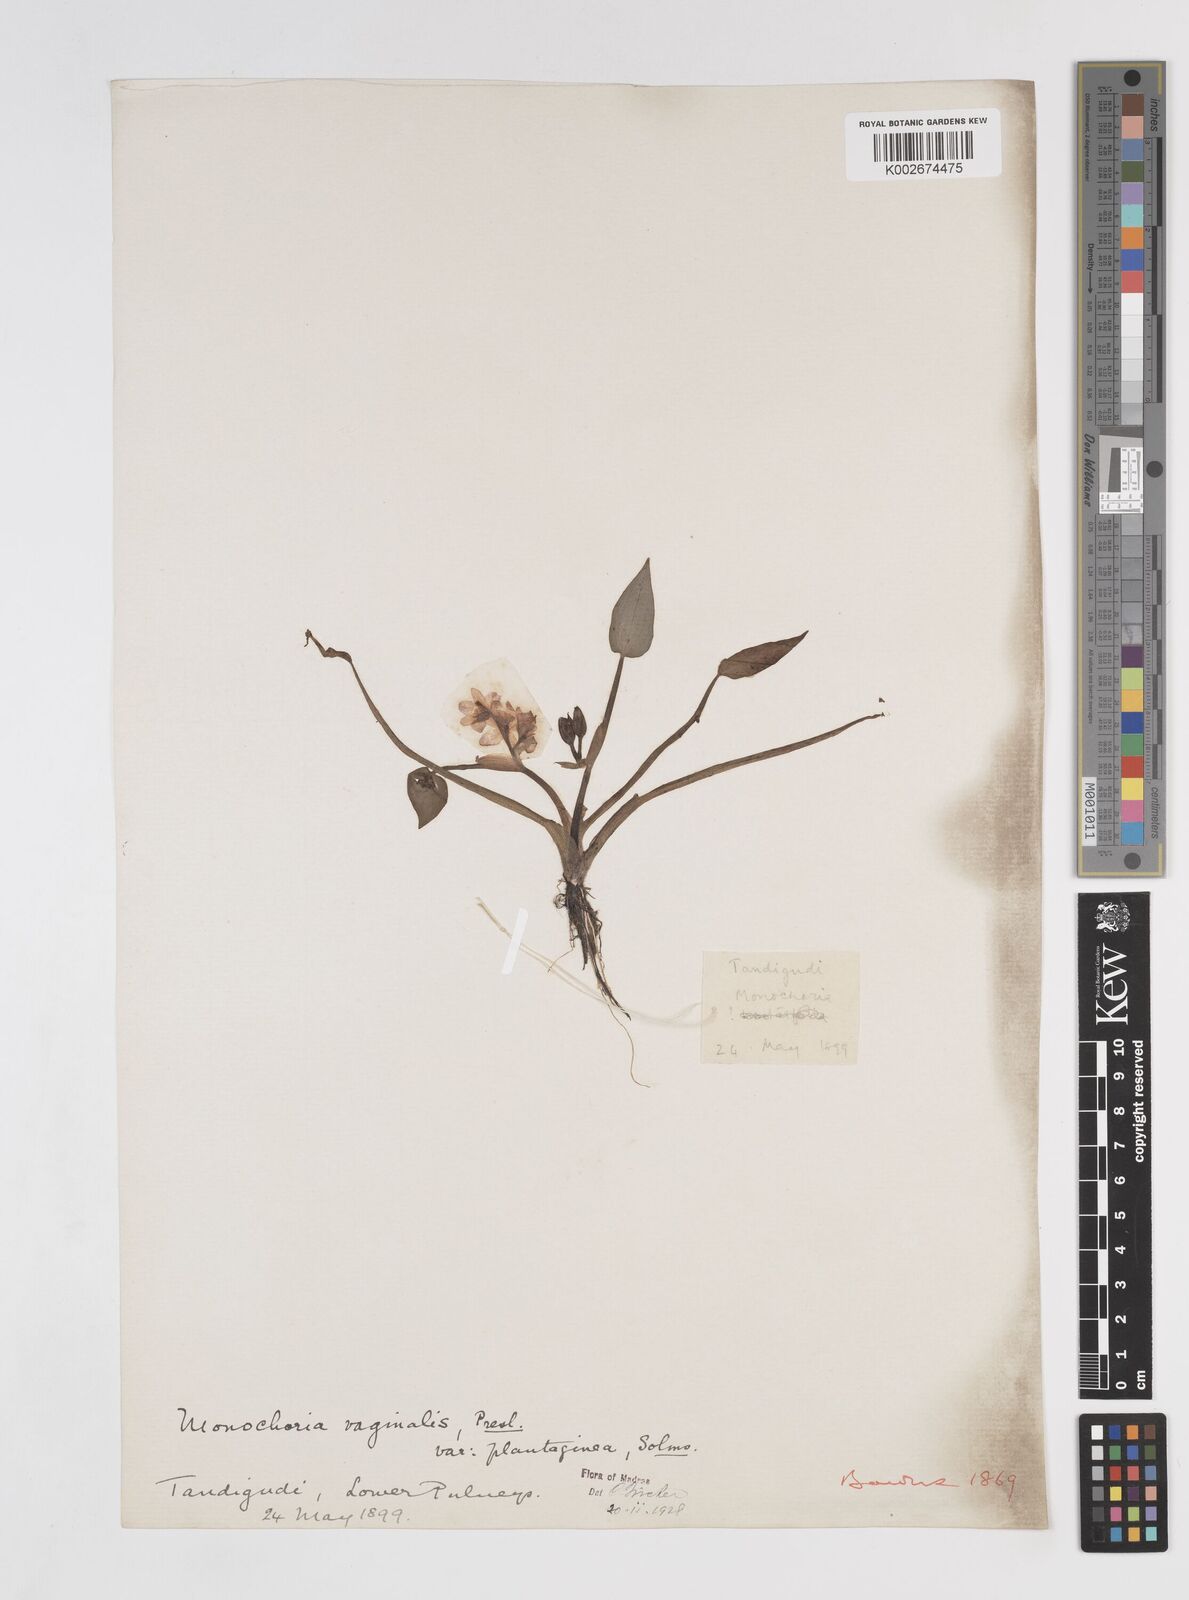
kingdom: Plantae
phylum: Tracheophyta
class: Liliopsida
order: Commelinales
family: Pontederiaceae
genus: Pontederia
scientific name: Pontederia vaginalis
